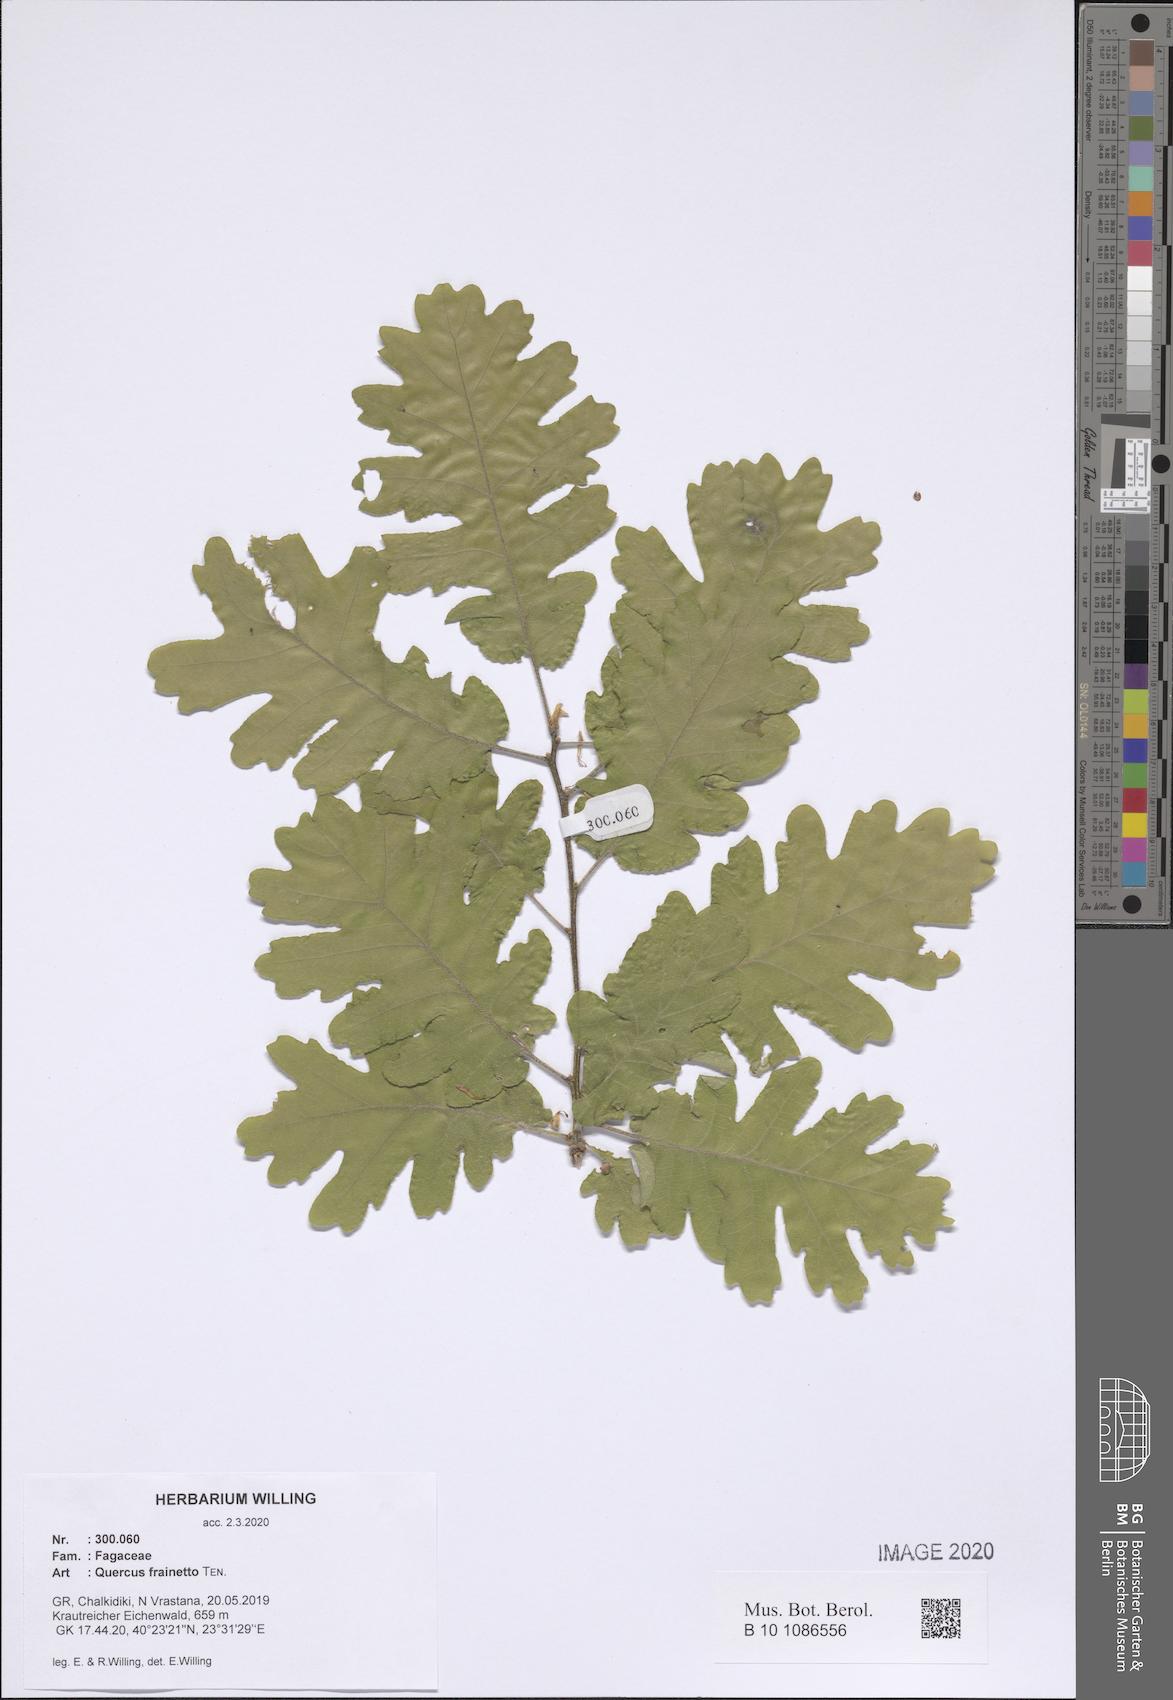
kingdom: Plantae
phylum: Tracheophyta
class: Magnoliopsida
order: Fagales
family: Fagaceae
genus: Quercus
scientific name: Quercus conferta
